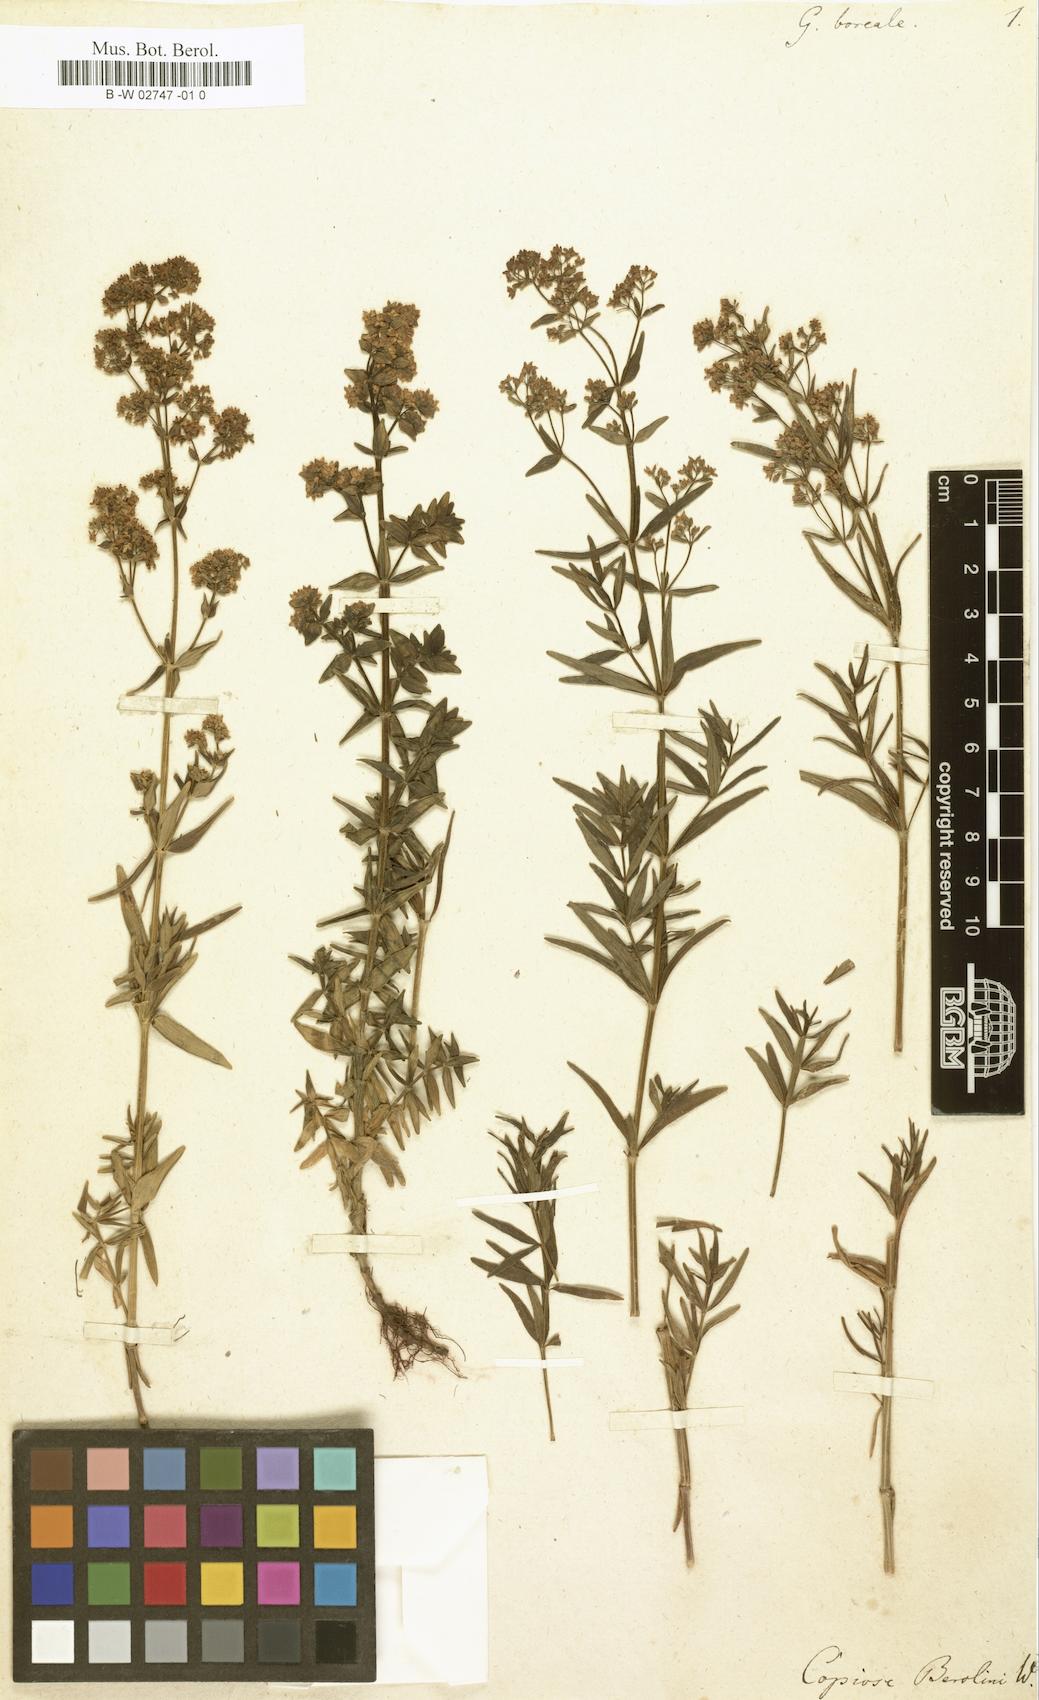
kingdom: Plantae
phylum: Tracheophyta
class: Magnoliopsida
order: Gentianales
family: Rubiaceae
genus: Galium
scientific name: Galium boreale
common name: Northern bedstraw
